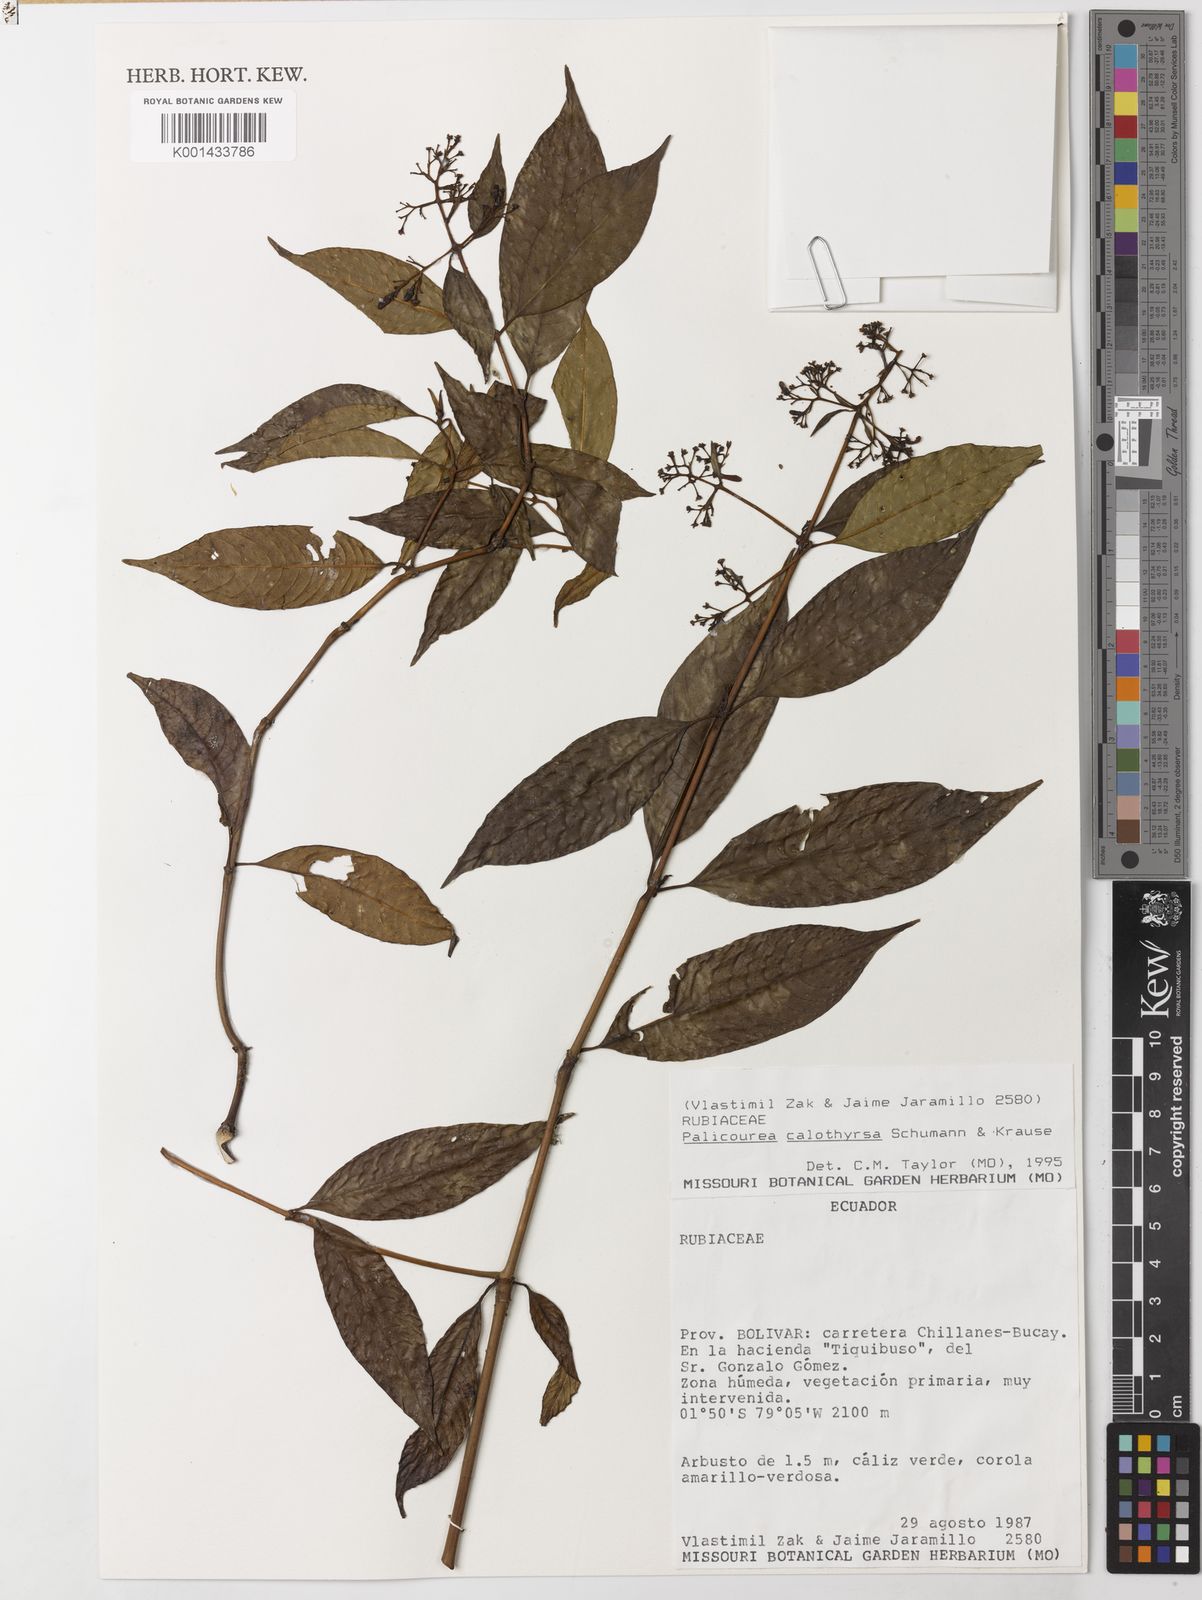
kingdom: Plantae
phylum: Tracheophyta
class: Magnoliopsida
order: Gentianales
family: Rubiaceae
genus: Palicourea
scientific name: Palicourea calothyrsus
